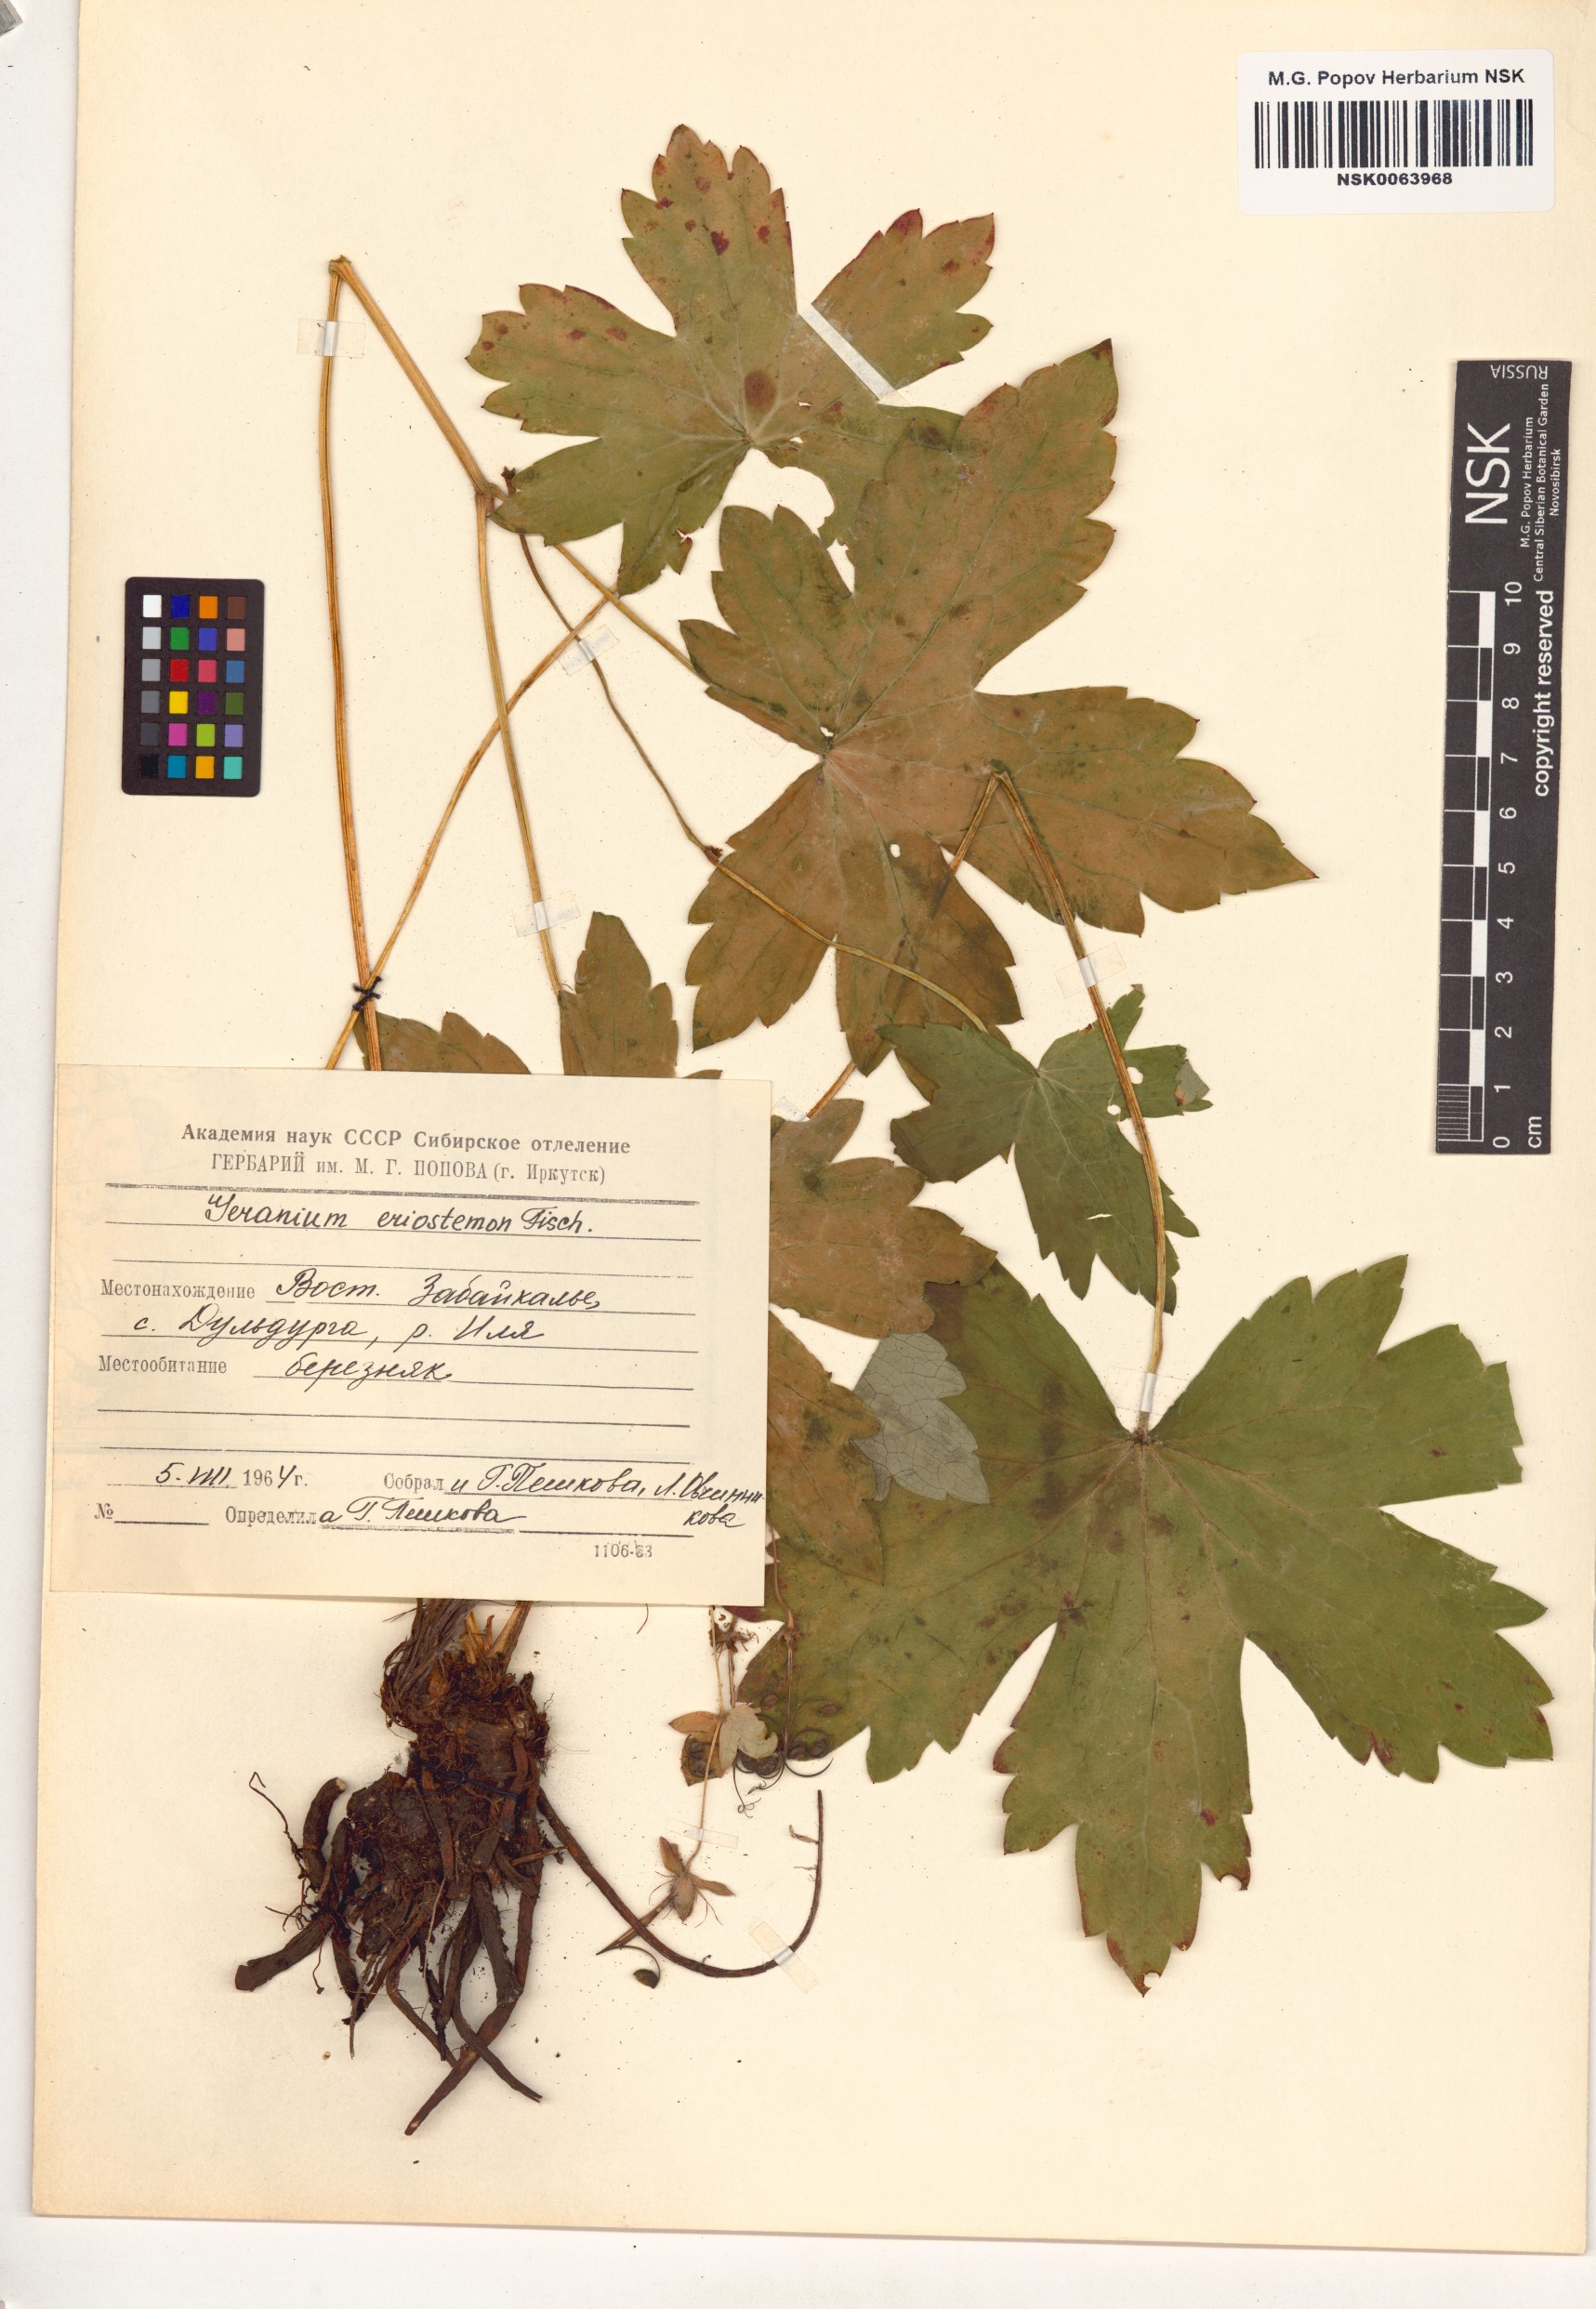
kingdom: Plantae
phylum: Tracheophyta
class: Magnoliopsida
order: Geraniales
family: Geraniaceae
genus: Geranium
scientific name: Geranium platyanthum
